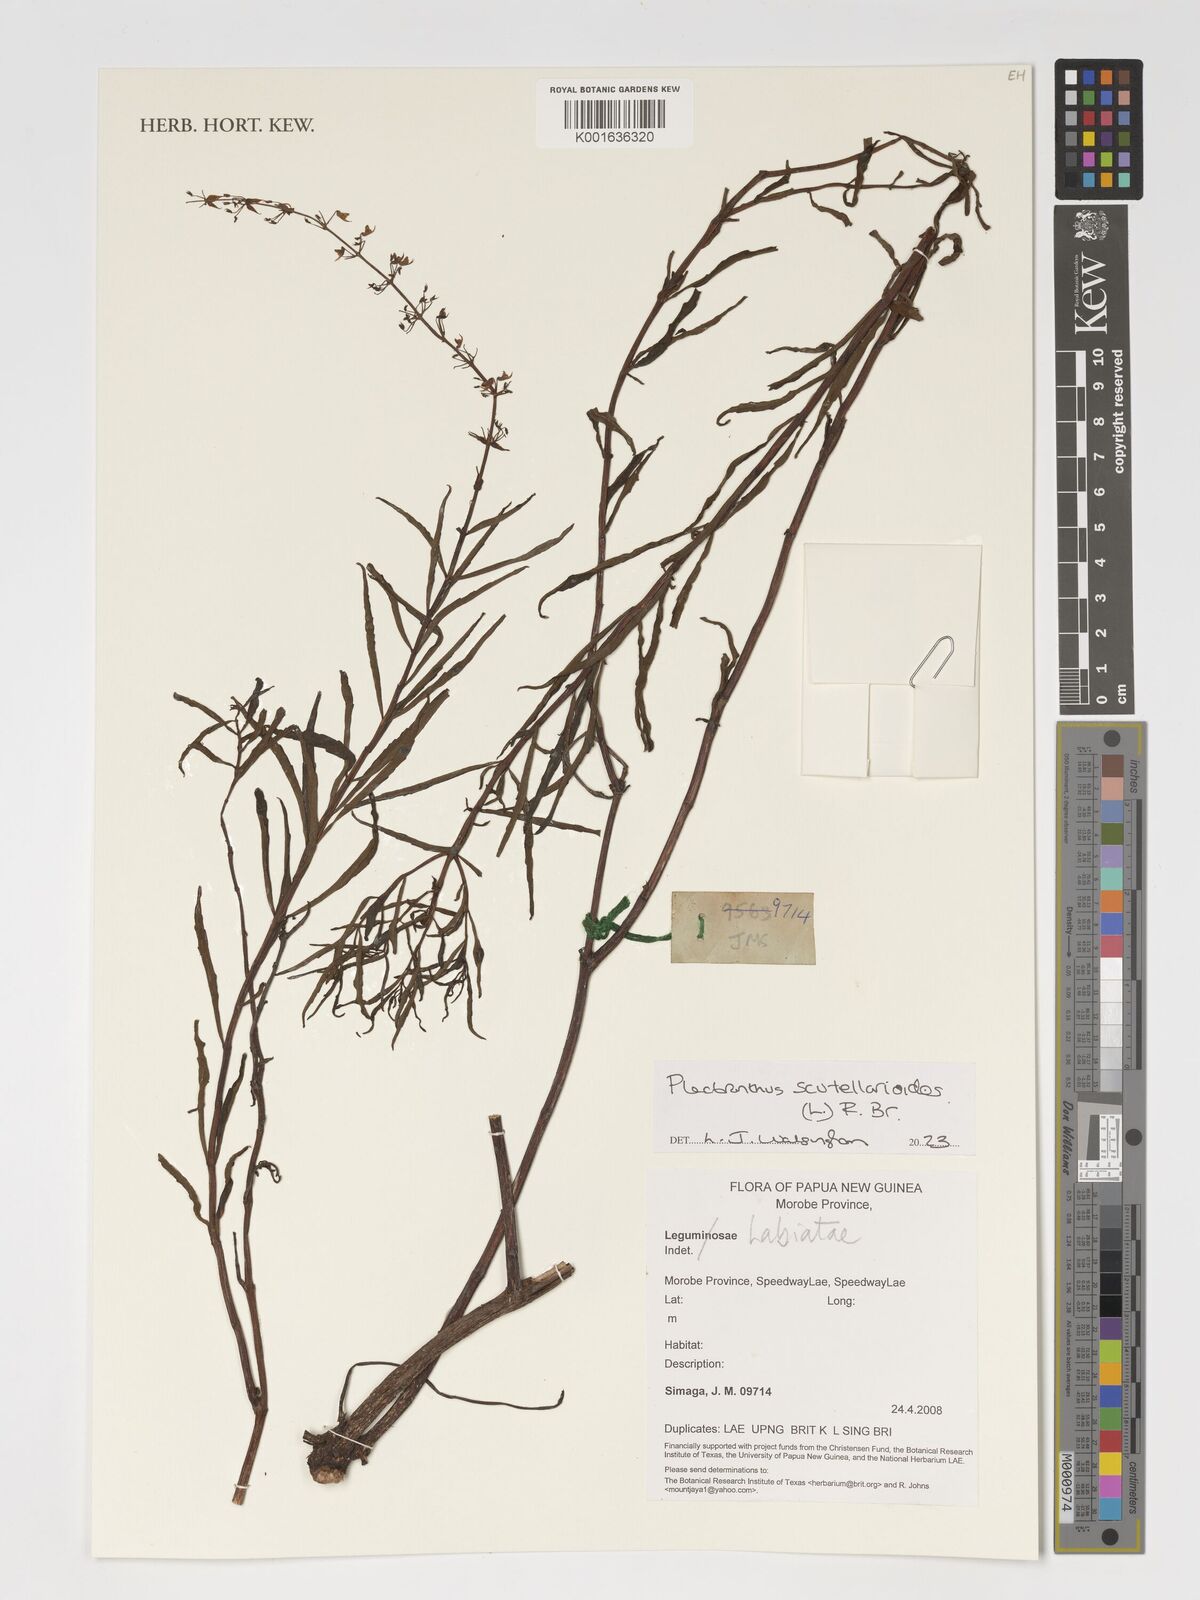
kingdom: Plantae
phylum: Tracheophyta
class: Magnoliopsida
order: Lamiales
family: Lamiaceae
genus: Coleus
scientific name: Coleus scutellarioides
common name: Coleus
